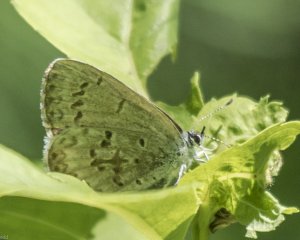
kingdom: Animalia
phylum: Arthropoda
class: Insecta
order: Lepidoptera
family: Lycaenidae
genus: Cyaniris
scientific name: Cyaniris neglecta
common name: Summer Azure
